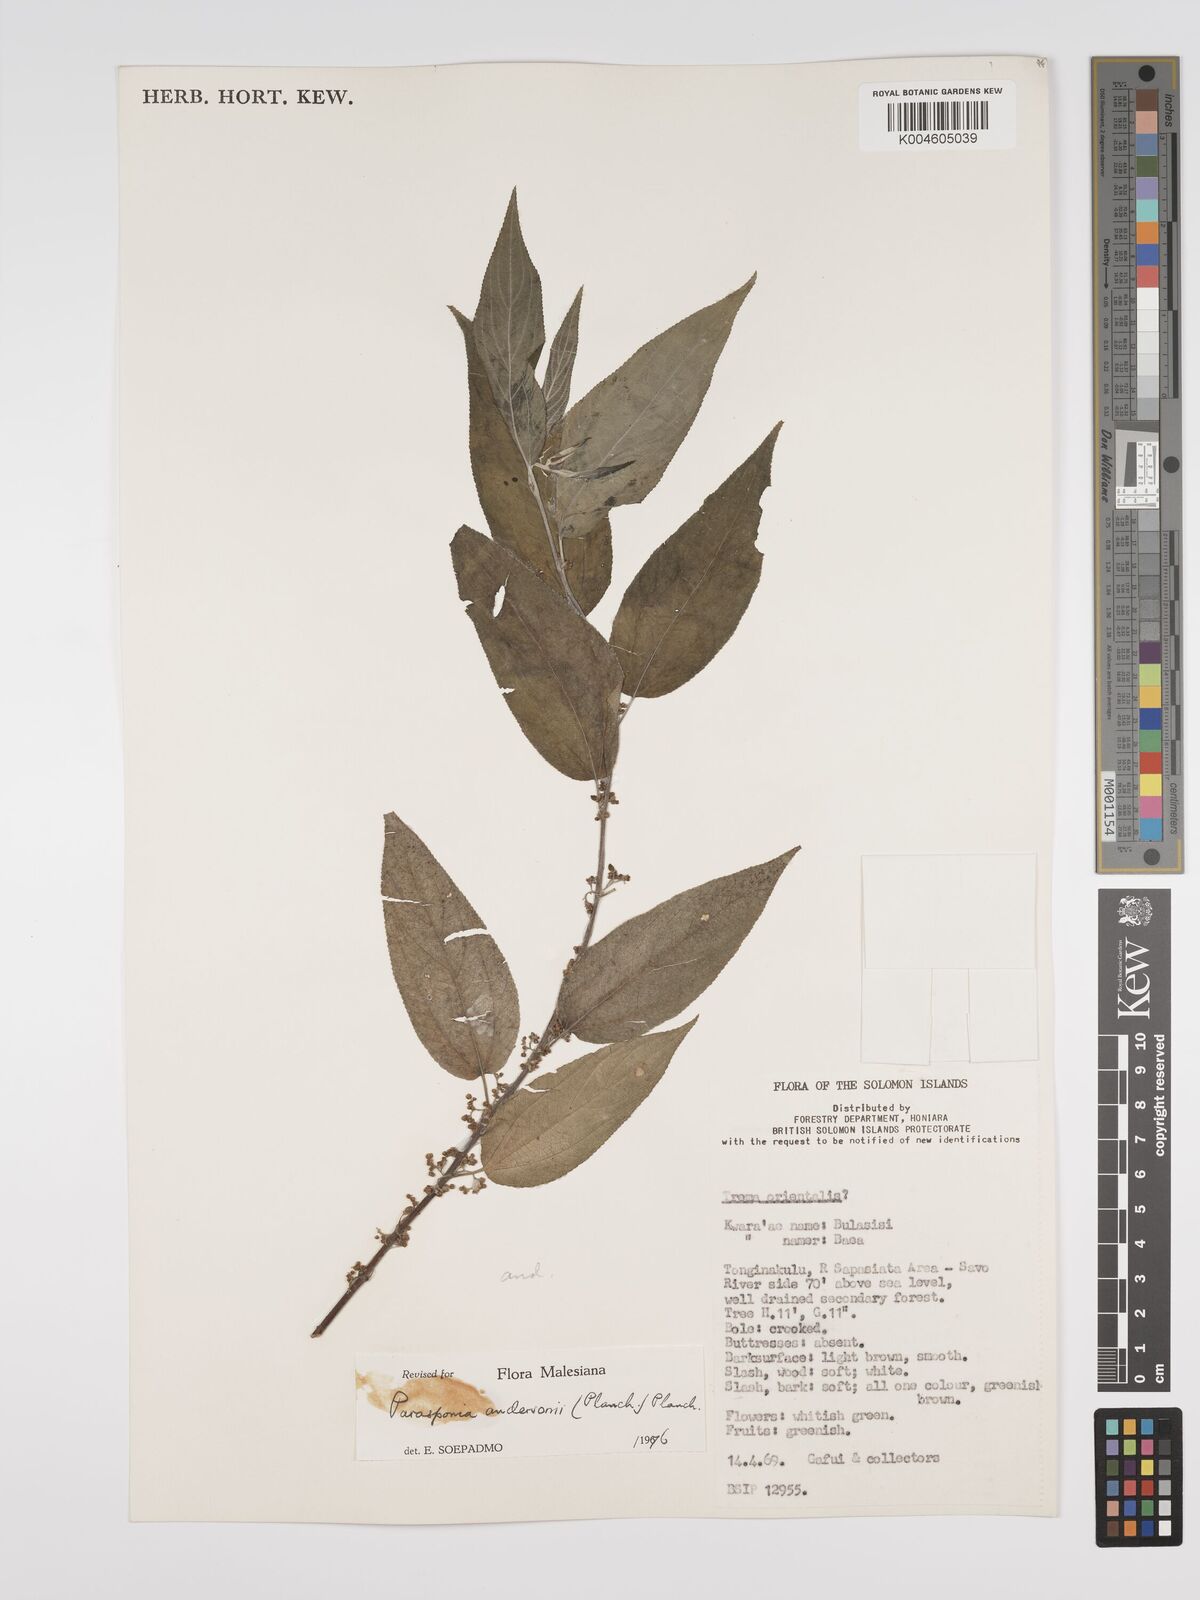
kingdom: Plantae
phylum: Tracheophyta
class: Magnoliopsida
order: Rosales
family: Cannabaceae
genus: Trema
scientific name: Trema andersonii
